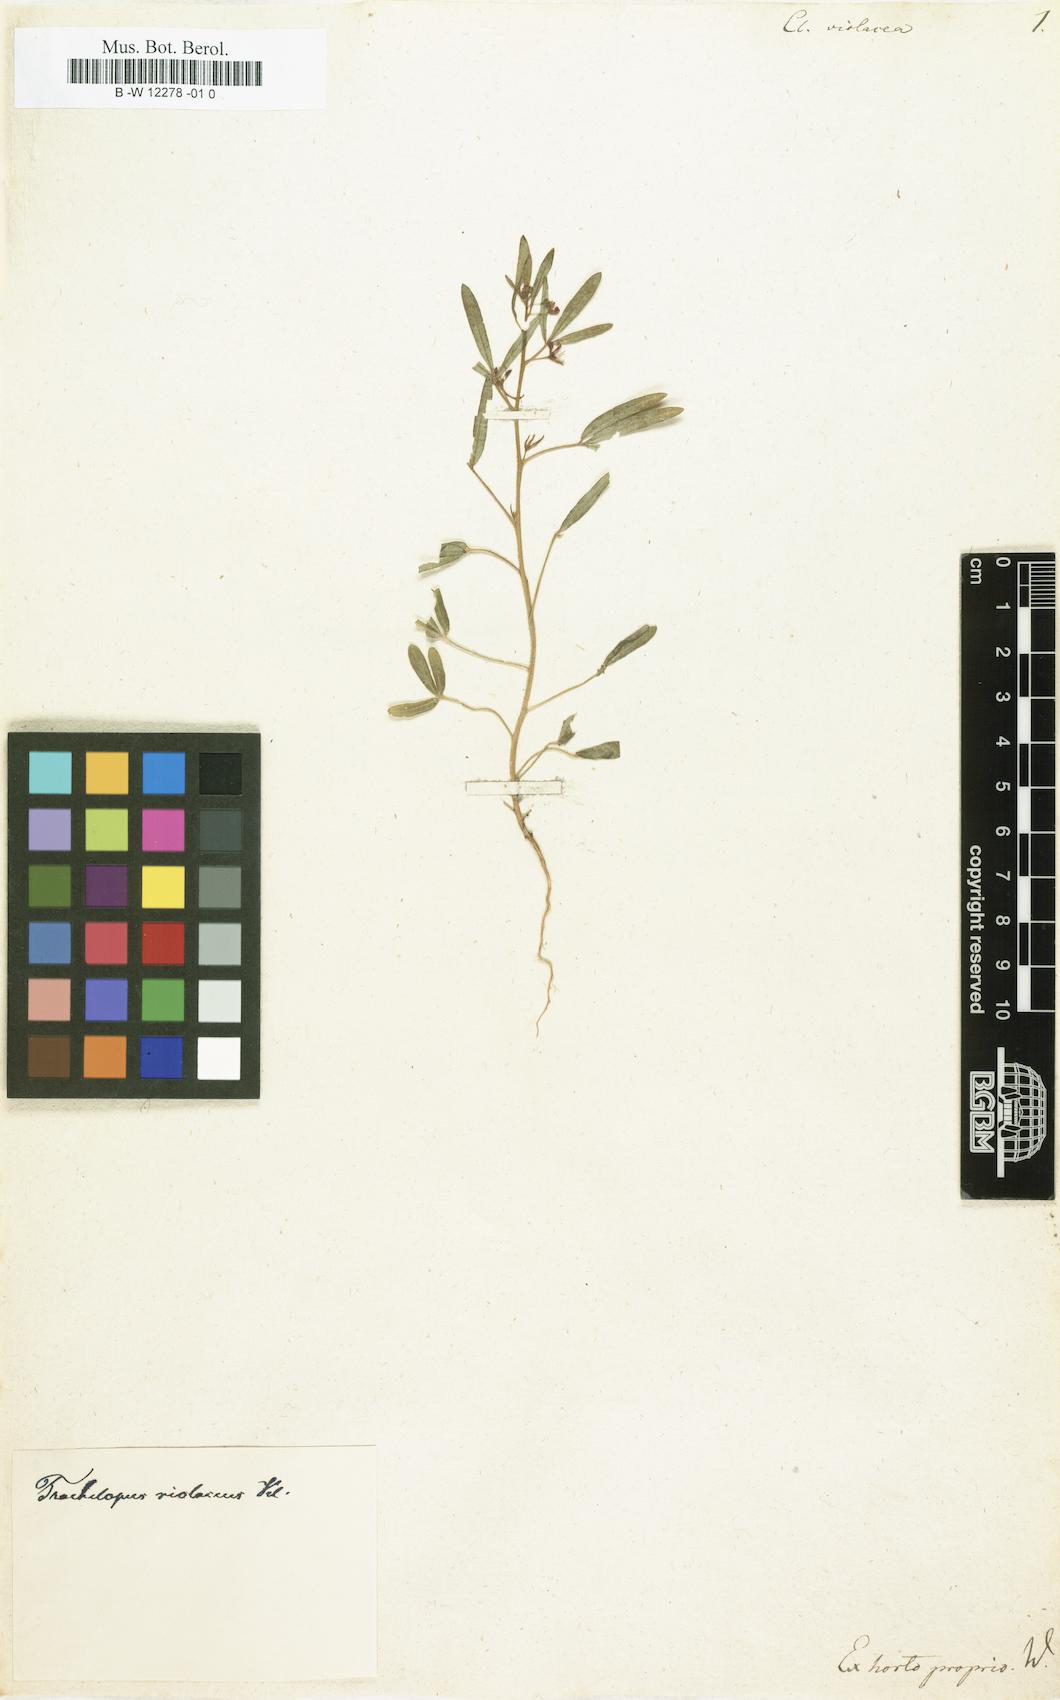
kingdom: Plantae
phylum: Tracheophyta
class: Magnoliopsida
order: Brassicales
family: Cleomaceae
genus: Cleome
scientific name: Cleome violacea
